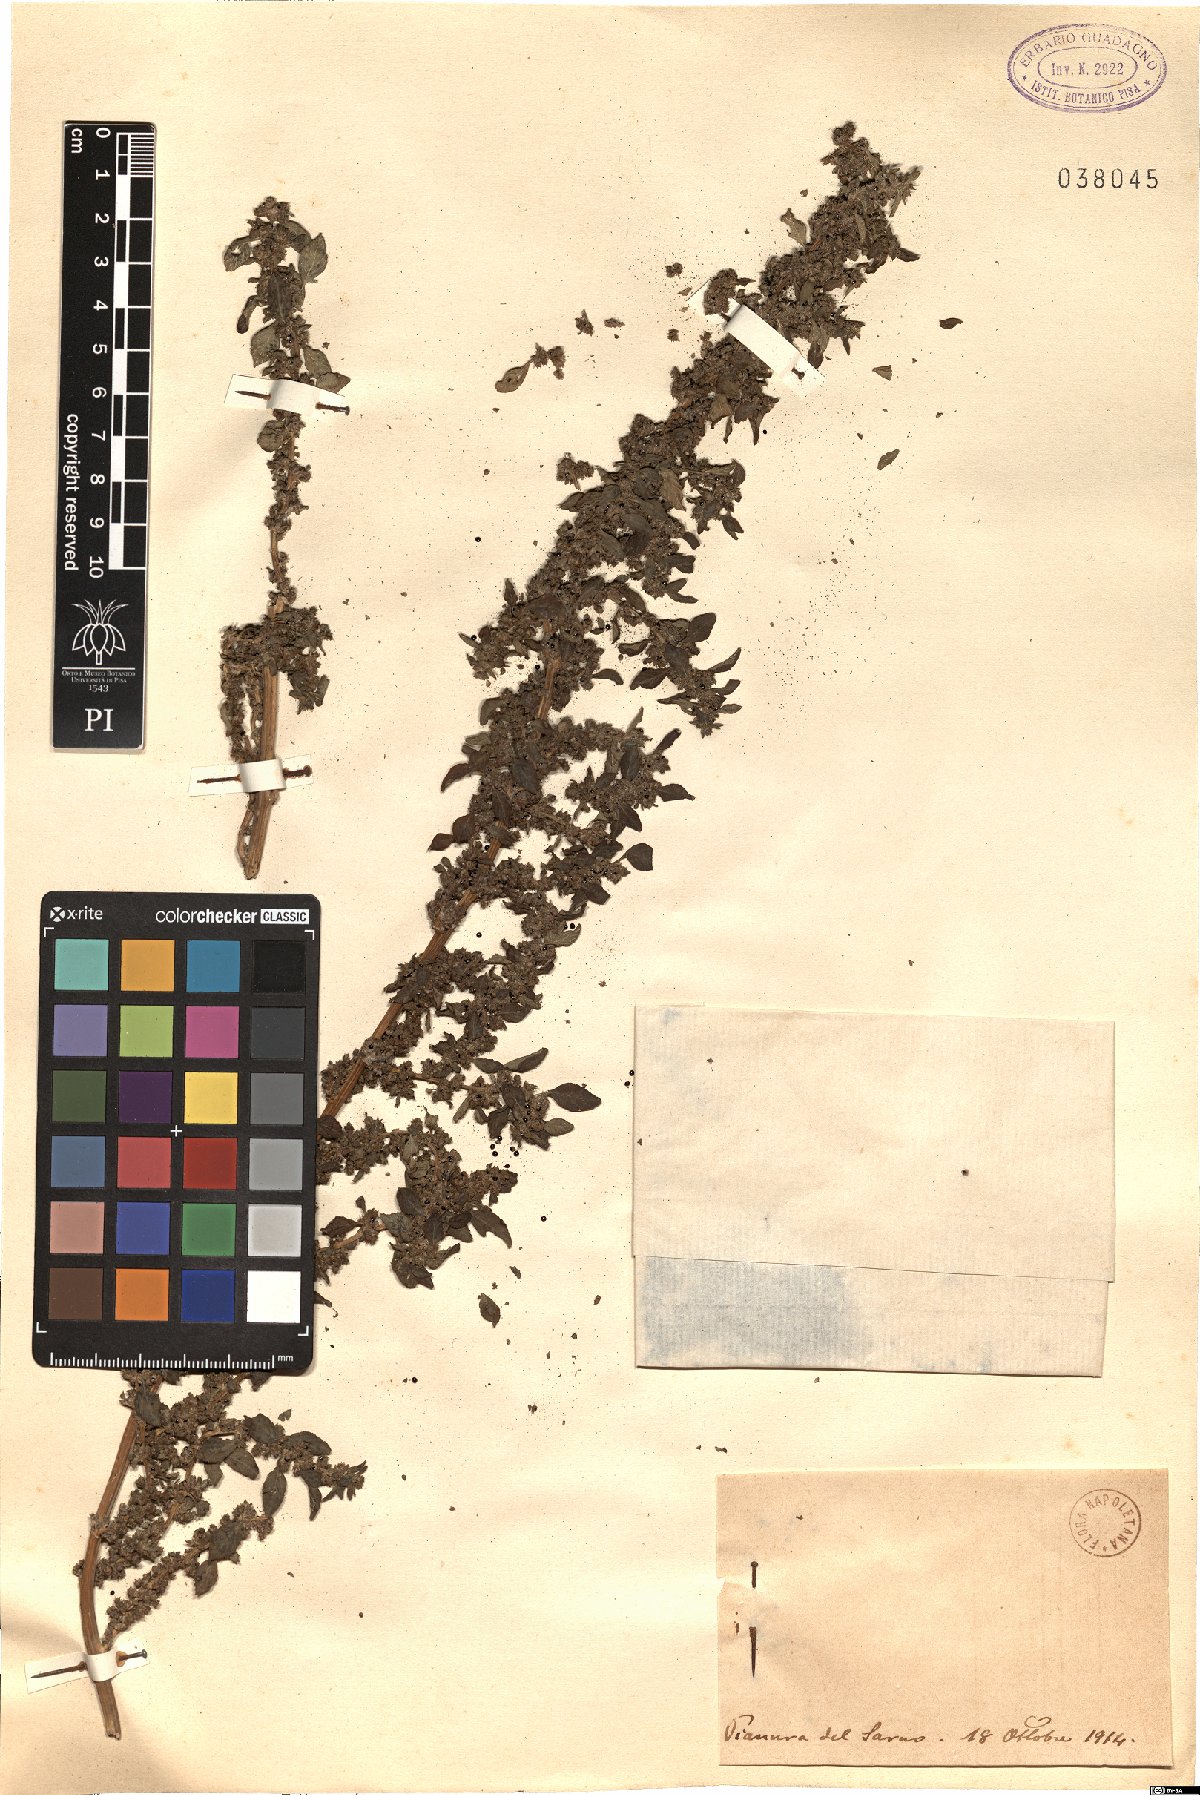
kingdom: Plantae
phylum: Tracheophyta
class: Magnoliopsida
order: Caryophyllales
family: Amaranthaceae
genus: Amaranthus
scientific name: Amaranthus
